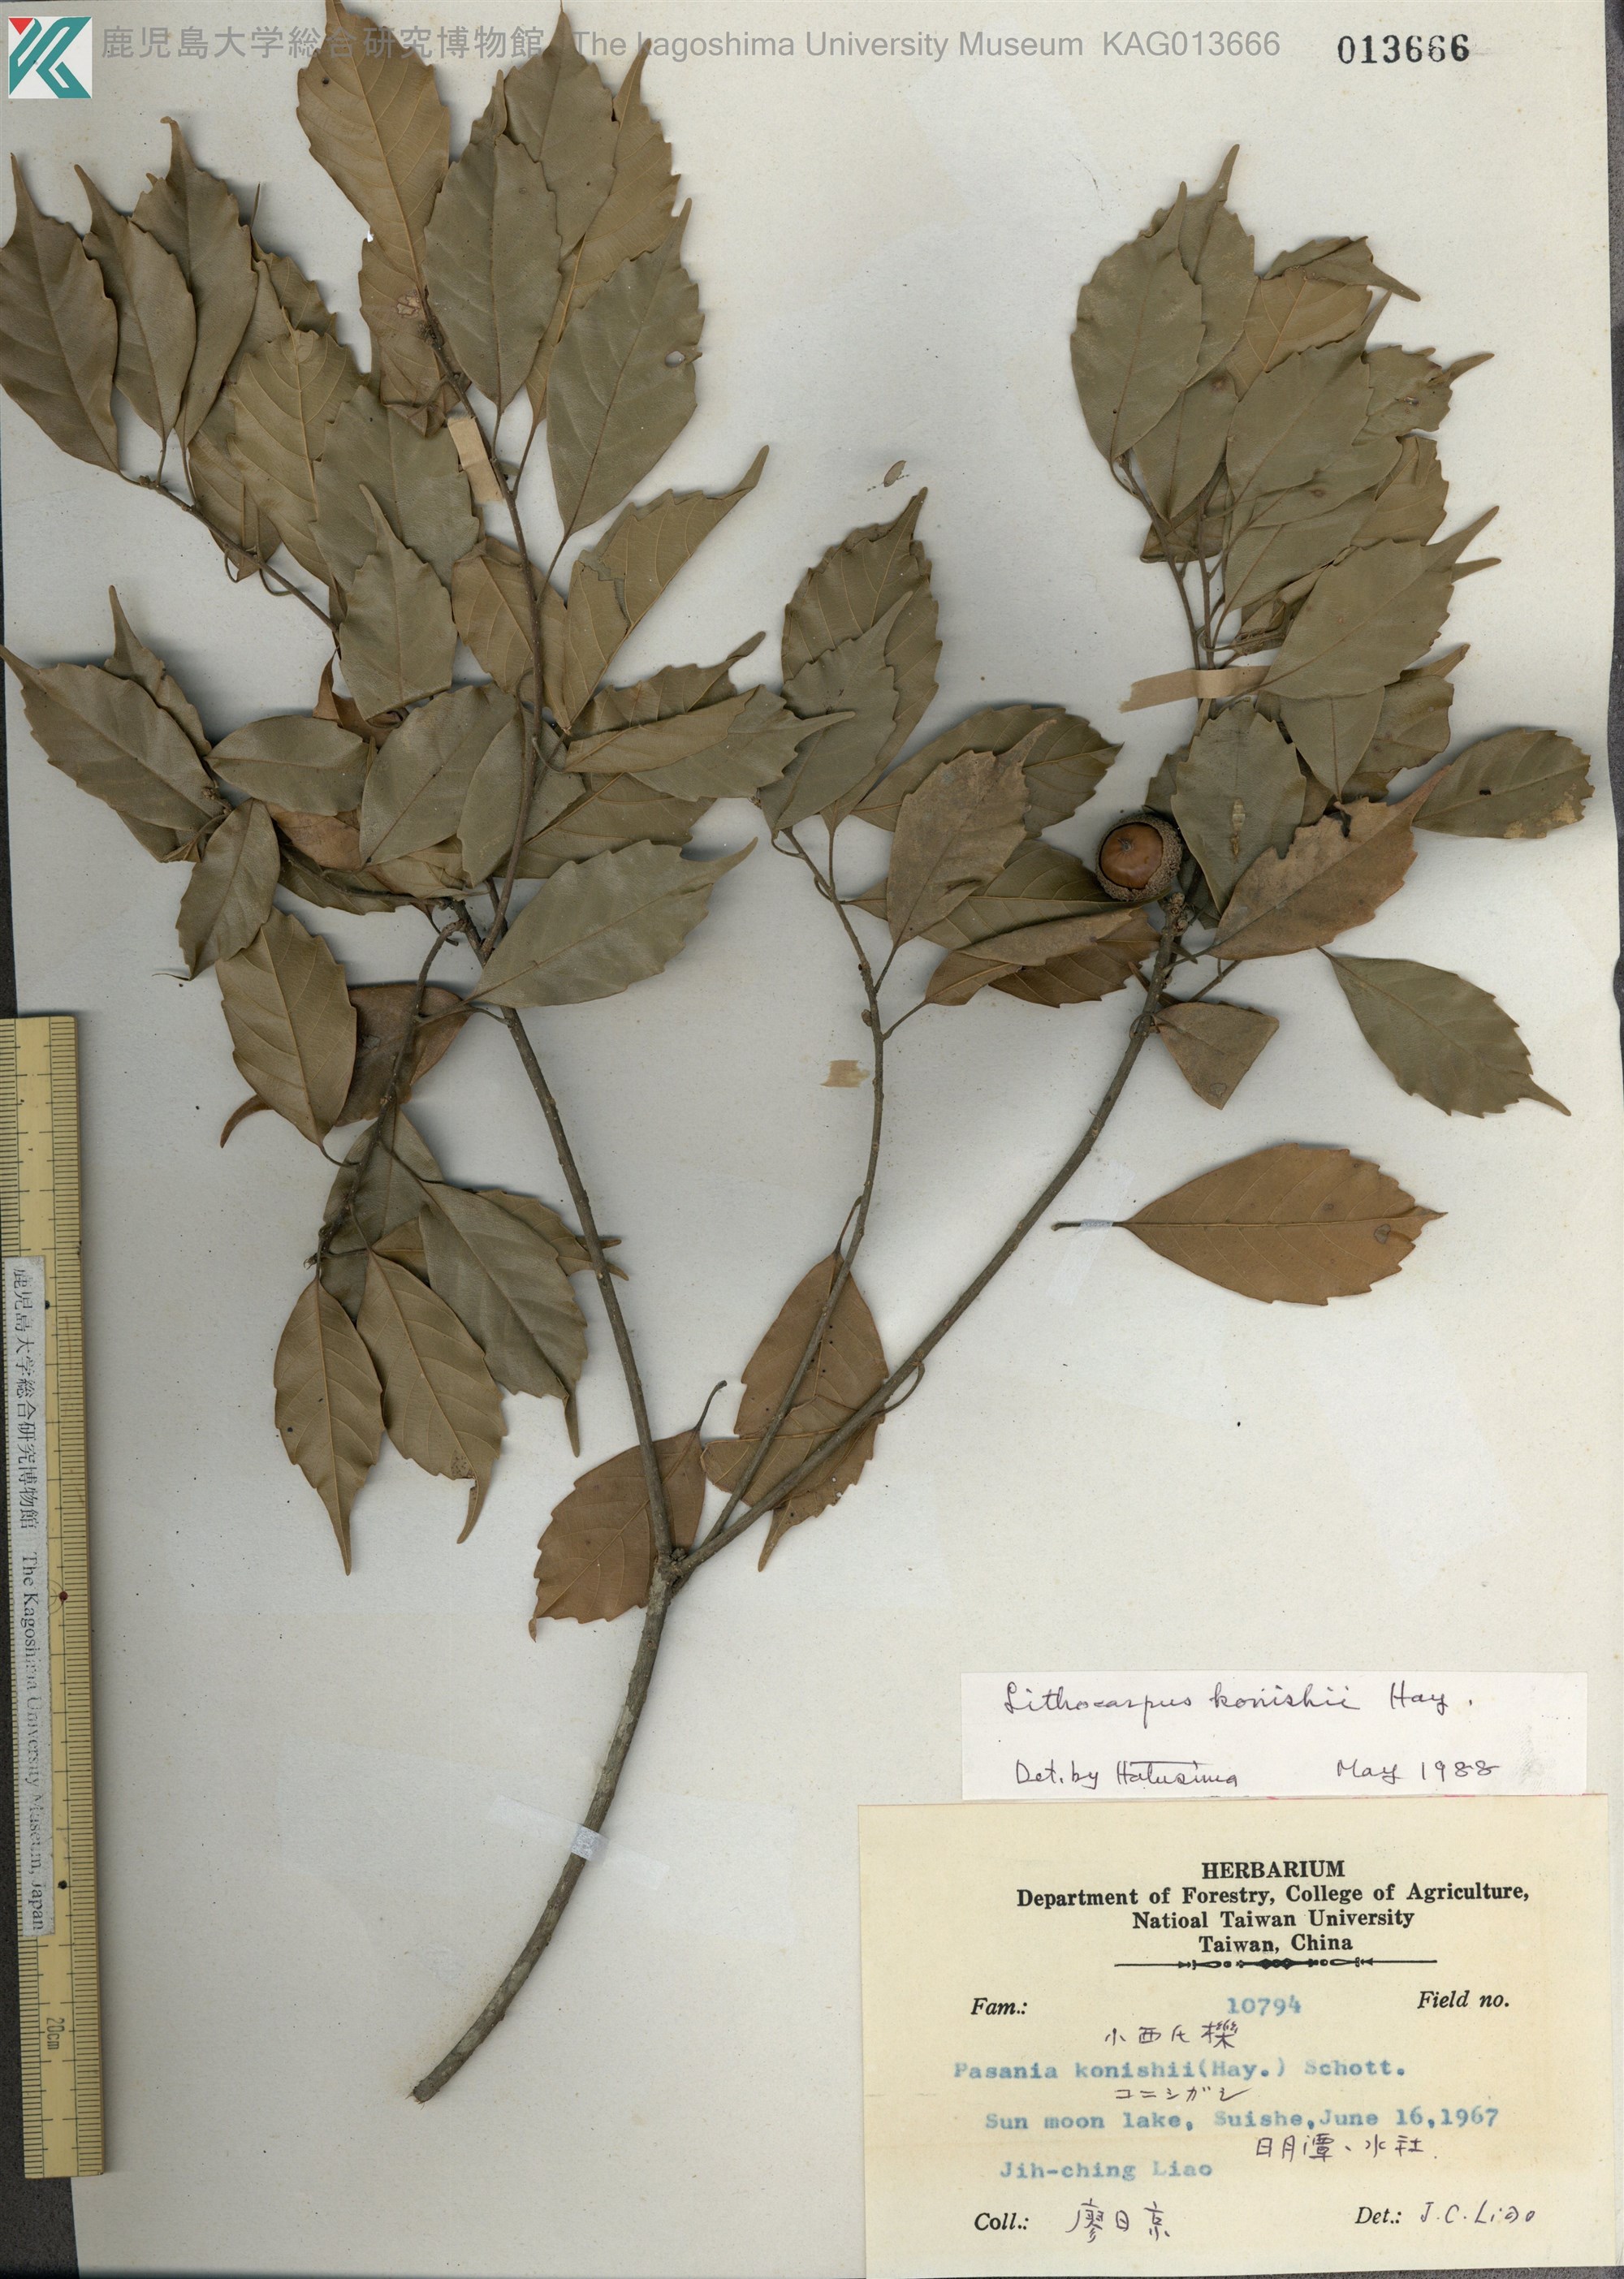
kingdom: Plantae
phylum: Tracheophyta
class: Magnoliopsida
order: Fagales
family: Fagaceae
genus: Lithocarpus
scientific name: Lithocarpus konishii
